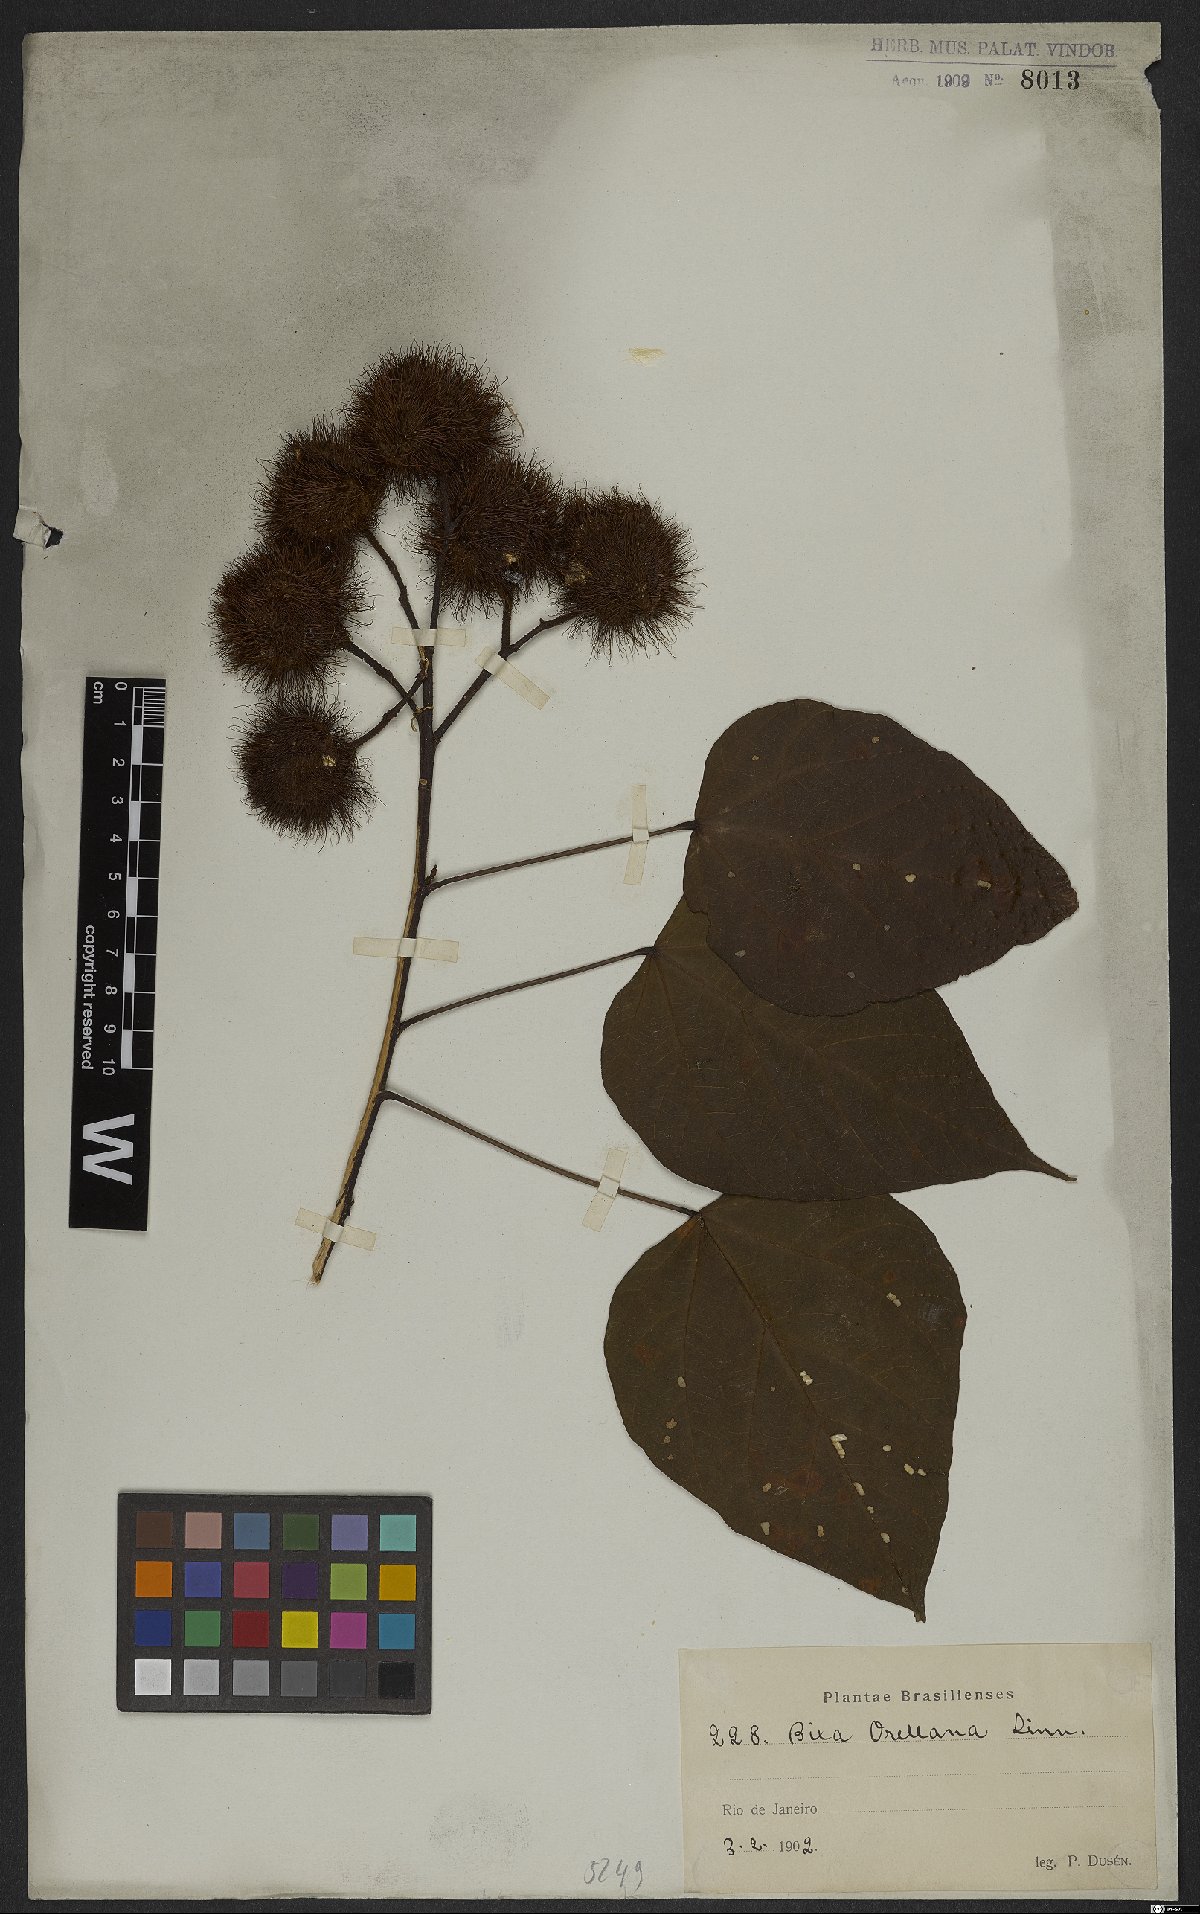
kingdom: Plantae
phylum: Tracheophyta
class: Magnoliopsida
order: Malvales
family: Bixaceae
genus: Bixa
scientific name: Bixa orellana
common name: Lipsticktree
